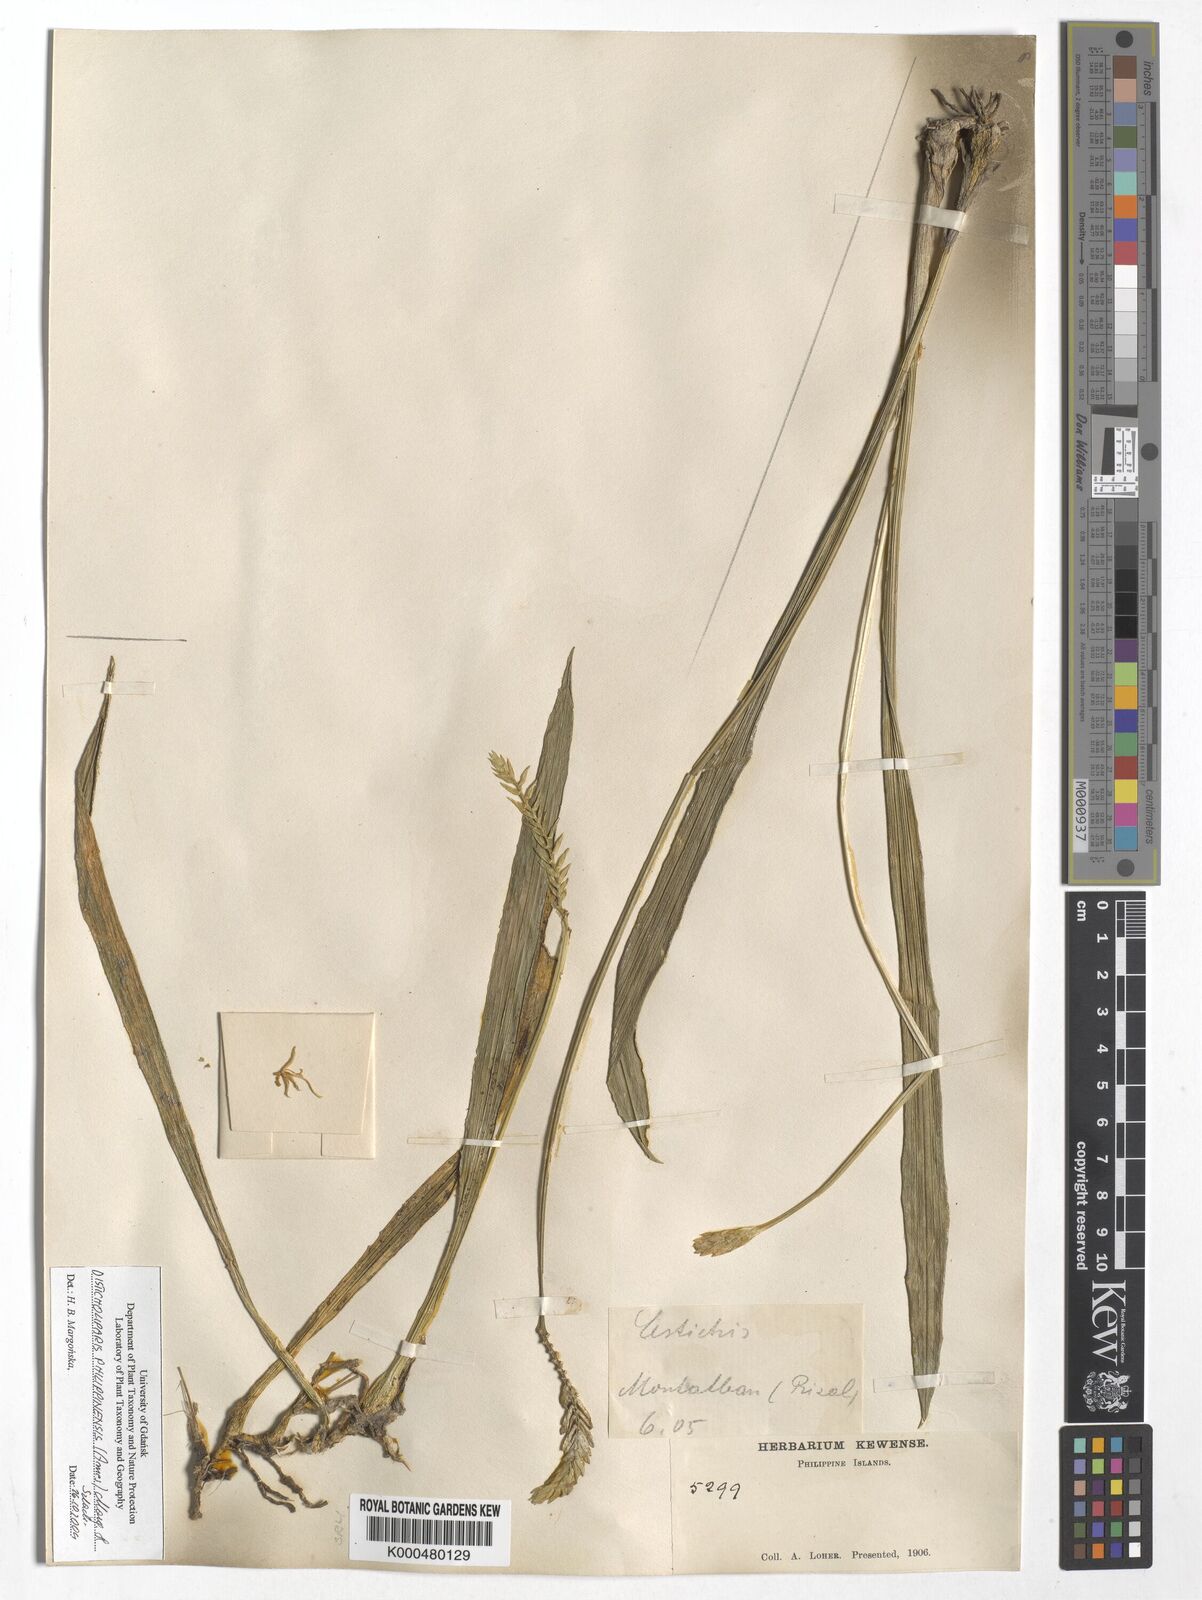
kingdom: Plantae
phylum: Tracheophyta
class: Liliopsida
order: Asparagales
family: Orchidaceae
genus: Liparis
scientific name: Liparis philippinensis
